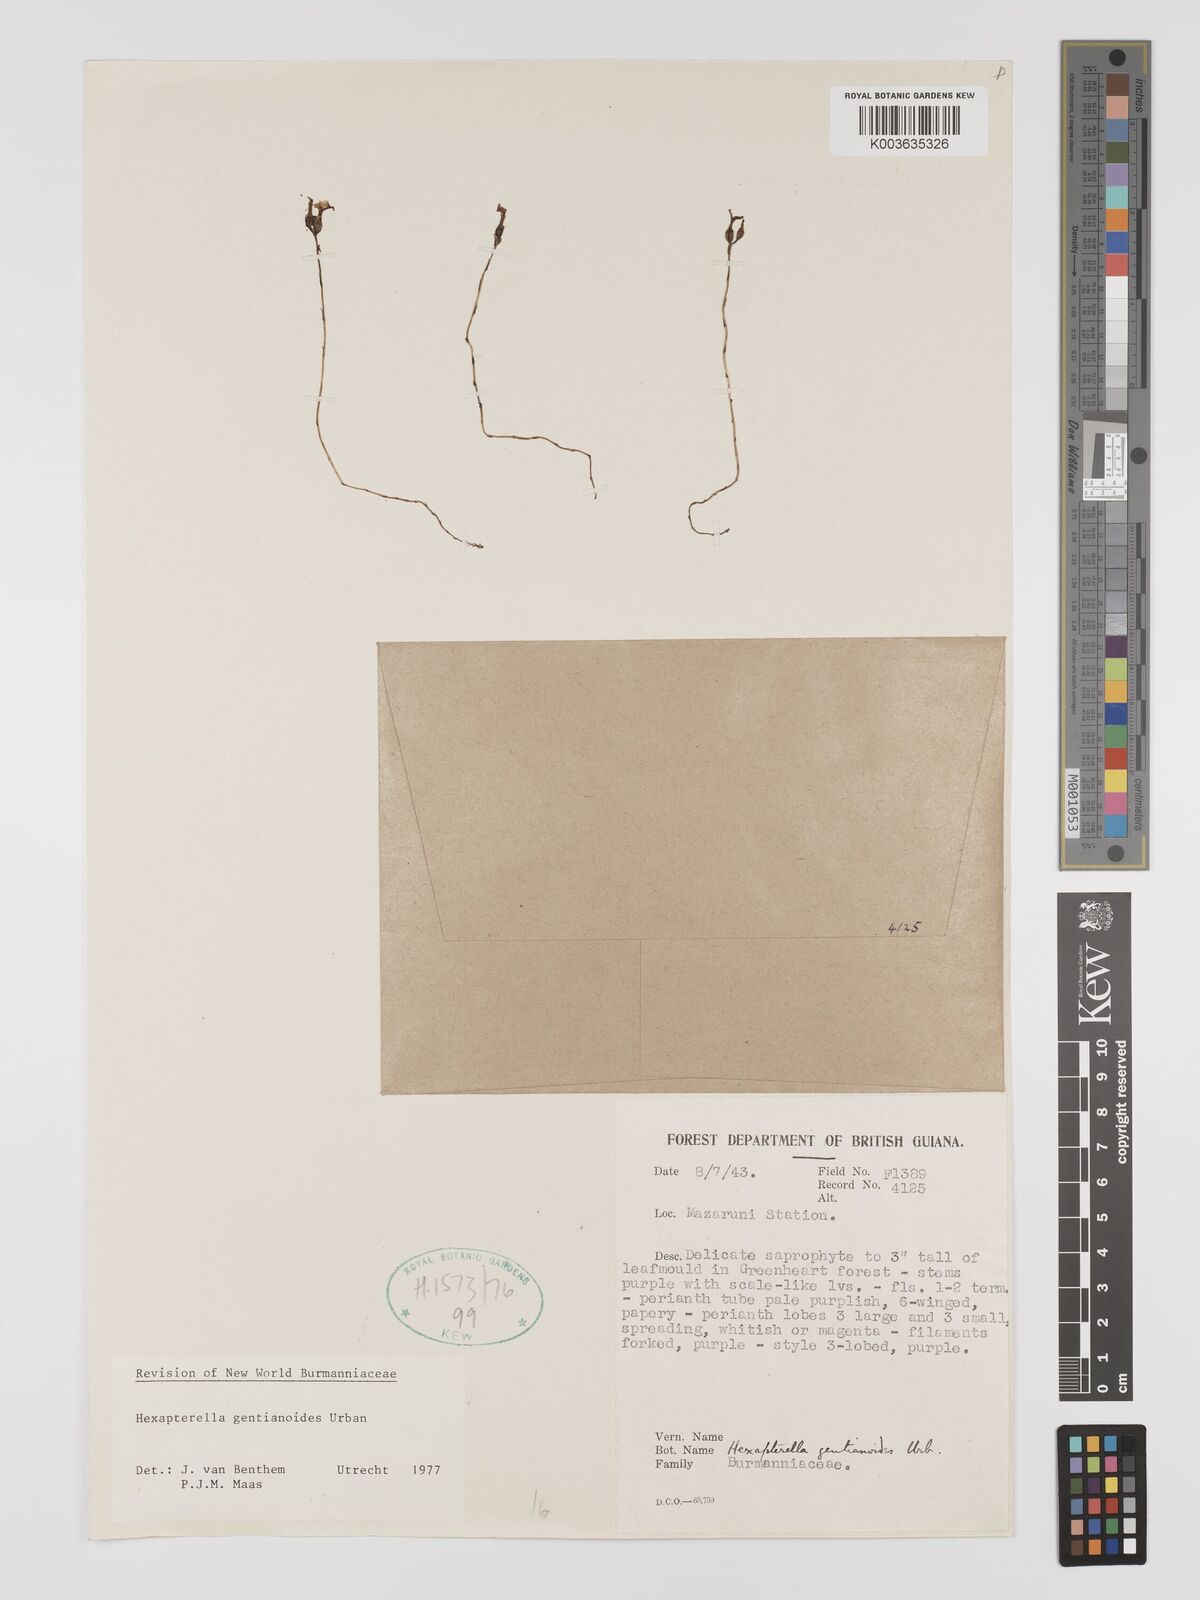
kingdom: Plantae
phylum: Tracheophyta
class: Liliopsida
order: Dioscoreales
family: Burmanniaceae
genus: Hexapterella
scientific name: Hexapterella gentianoides
